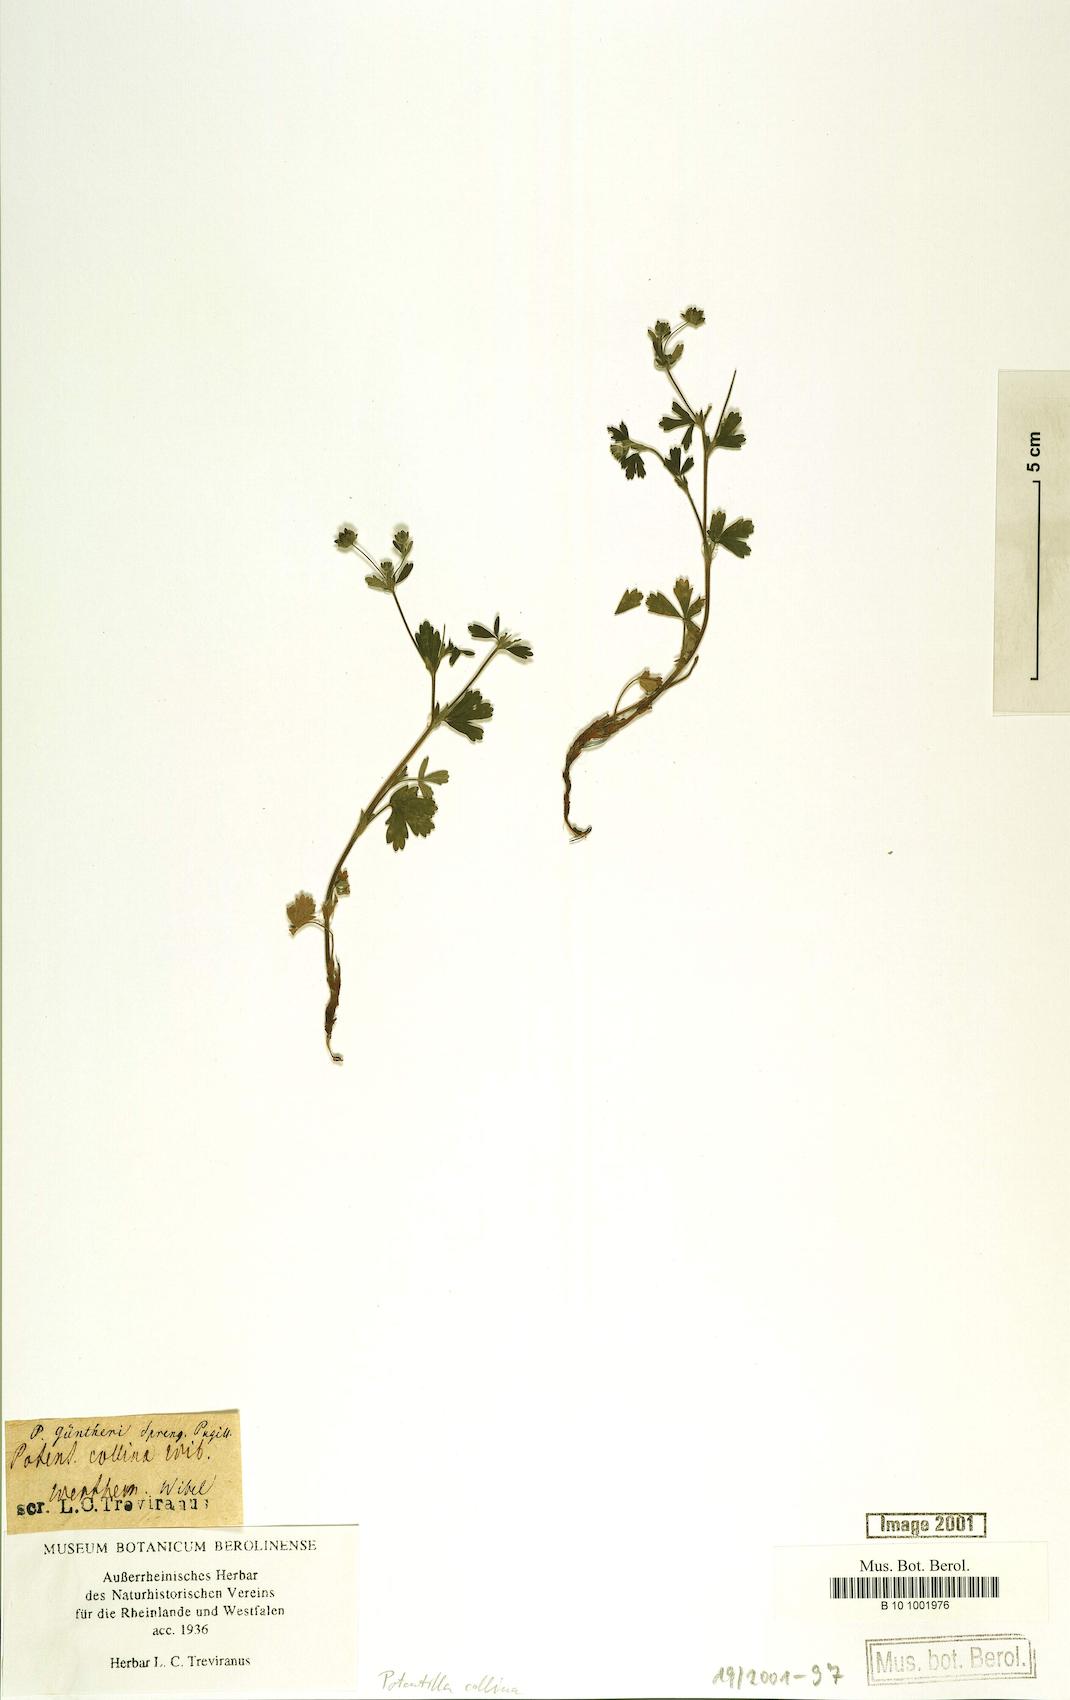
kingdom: Plantae
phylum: Tracheophyta
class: Magnoliopsida
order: Rosales
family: Rosaceae
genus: Potentilla
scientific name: Potentilla collina
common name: Palmleaf cinquefoil
